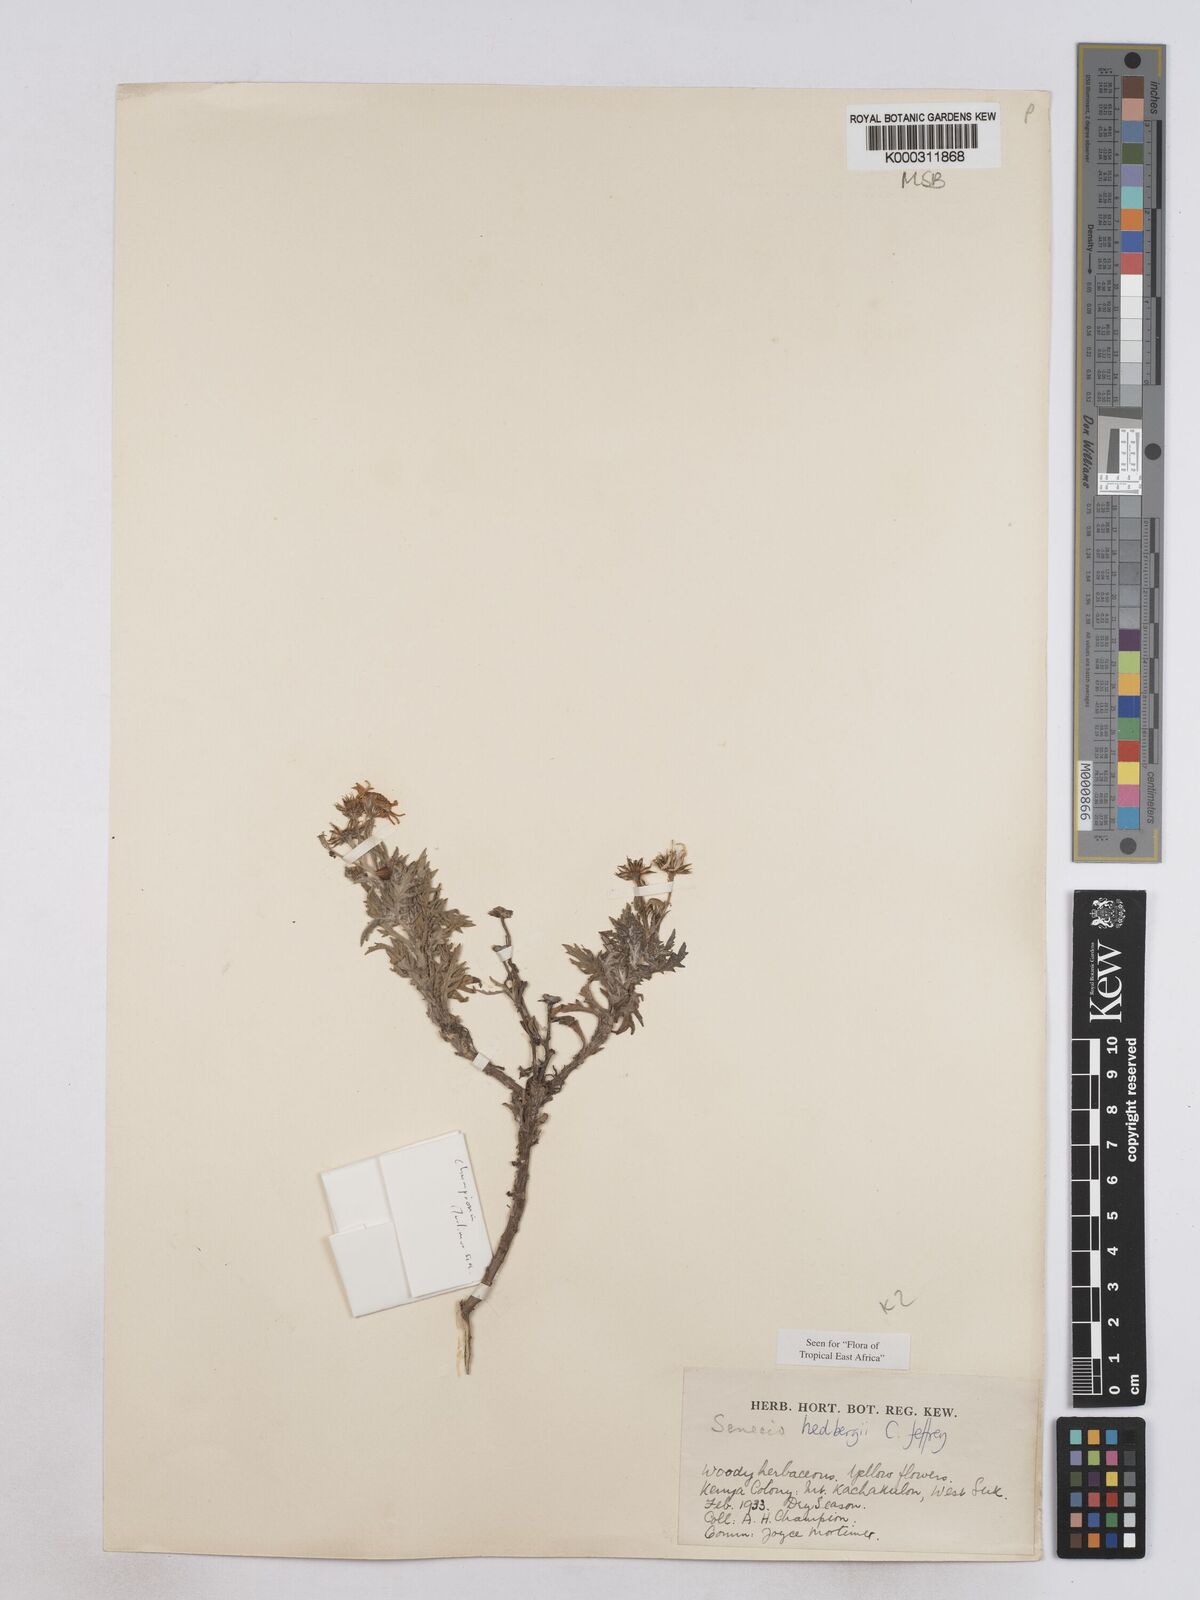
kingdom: Plantae
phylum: Tracheophyta
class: Magnoliopsida
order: Asterales
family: Asteraceae
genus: Senecio
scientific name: Senecio hedbergii
